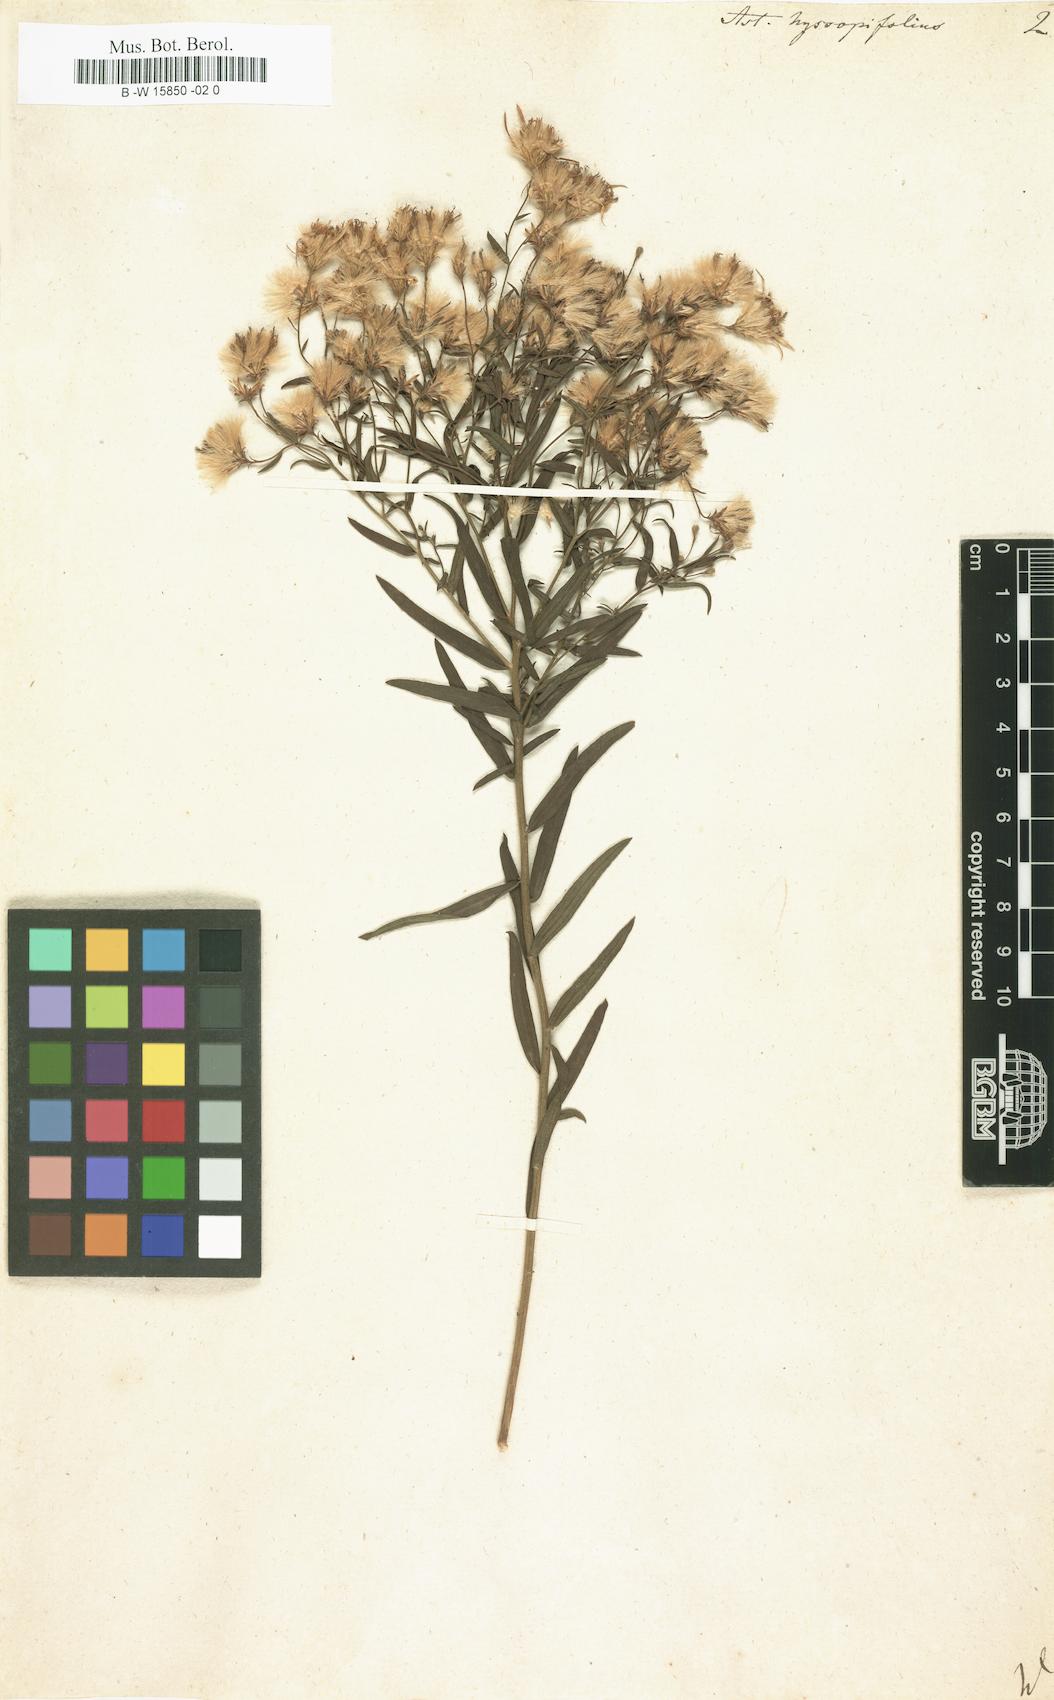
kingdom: Plantae
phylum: Tracheophyta
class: Magnoliopsida
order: Asterales
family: Asteraceae
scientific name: Asteraceae
